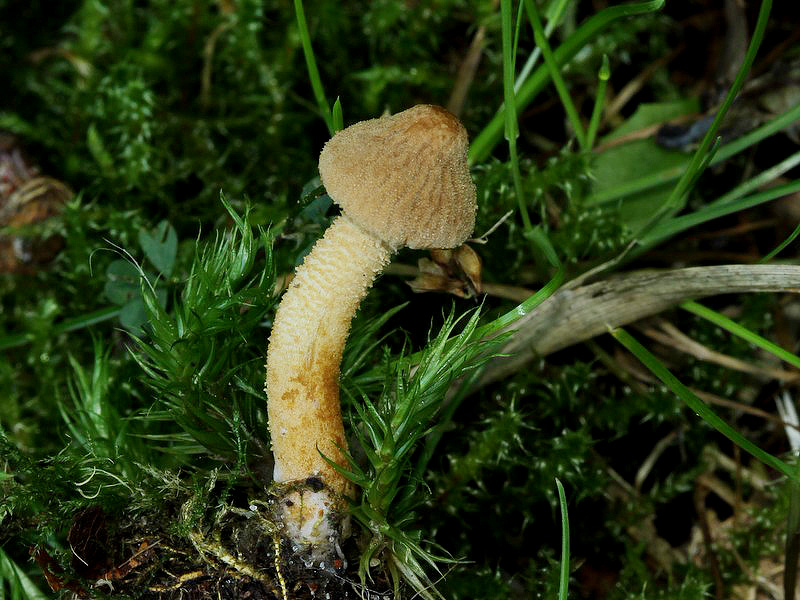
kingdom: Fungi
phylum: Basidiomycota
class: Agaricomycetes
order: Agaricales
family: Tricholomataceae
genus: Cystoderma
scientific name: Cystoderma amianthinum
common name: okkergul grynhat
